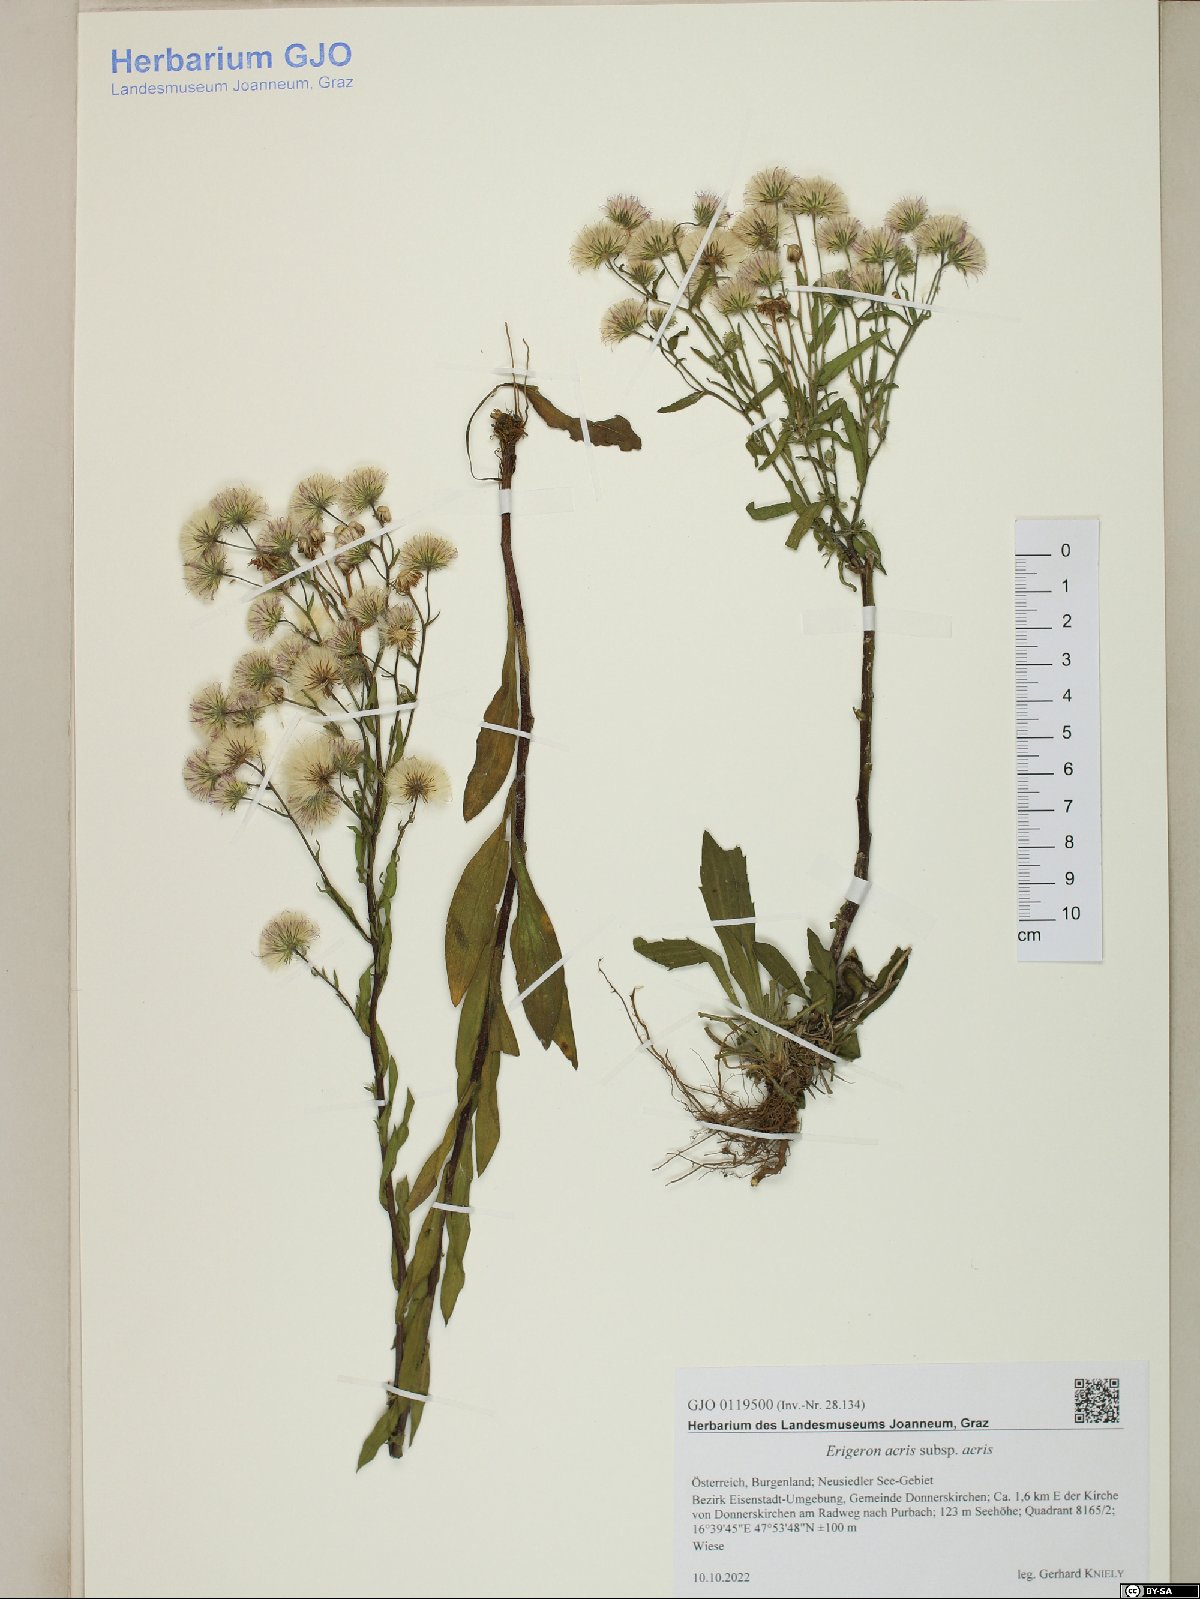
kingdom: Plantae
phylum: Tracheophyta
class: Magnoliopsida
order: Asterales
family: Asteraceae
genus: Erigeron
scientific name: Erigeron acris
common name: Blue fleabane
